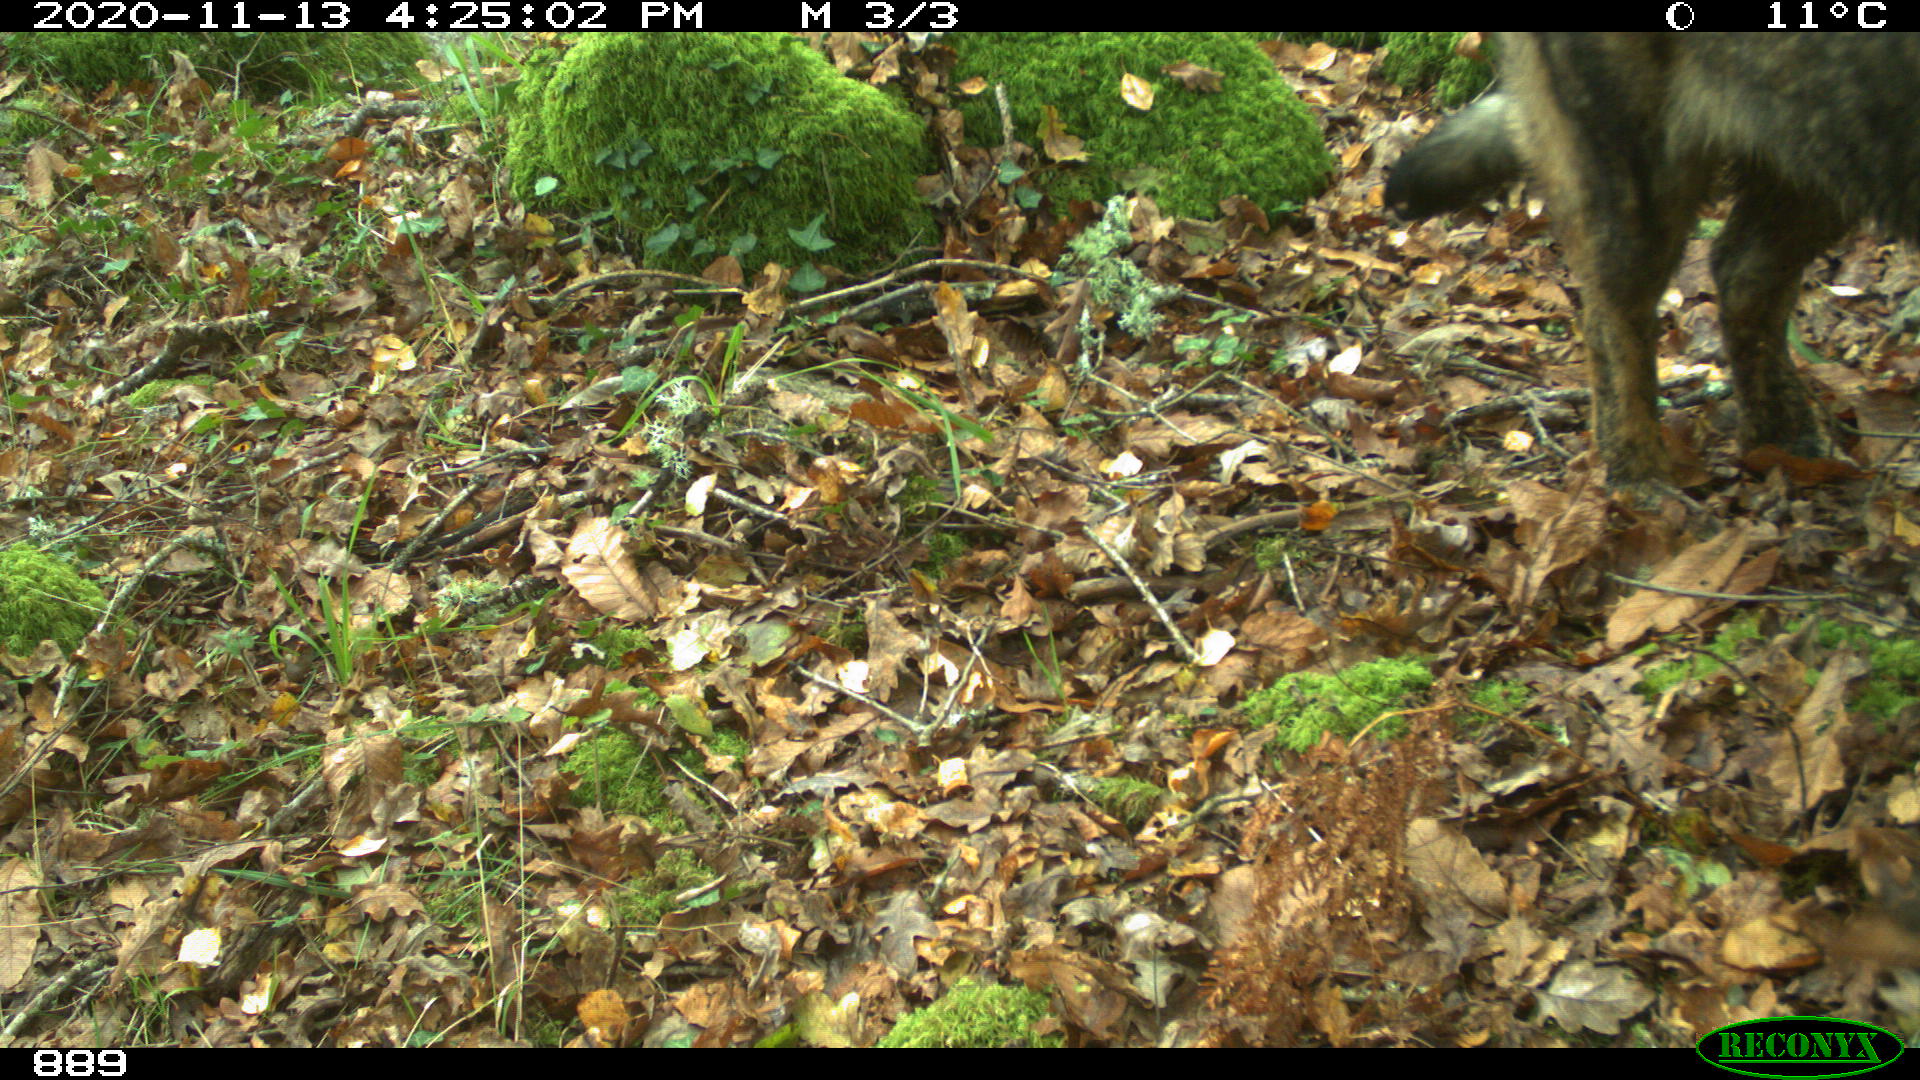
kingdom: Animalia
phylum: Chordata
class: Mammalia
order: Carnivora
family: Canidae
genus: Canis
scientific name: Canis lupus
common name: Gray wolf
